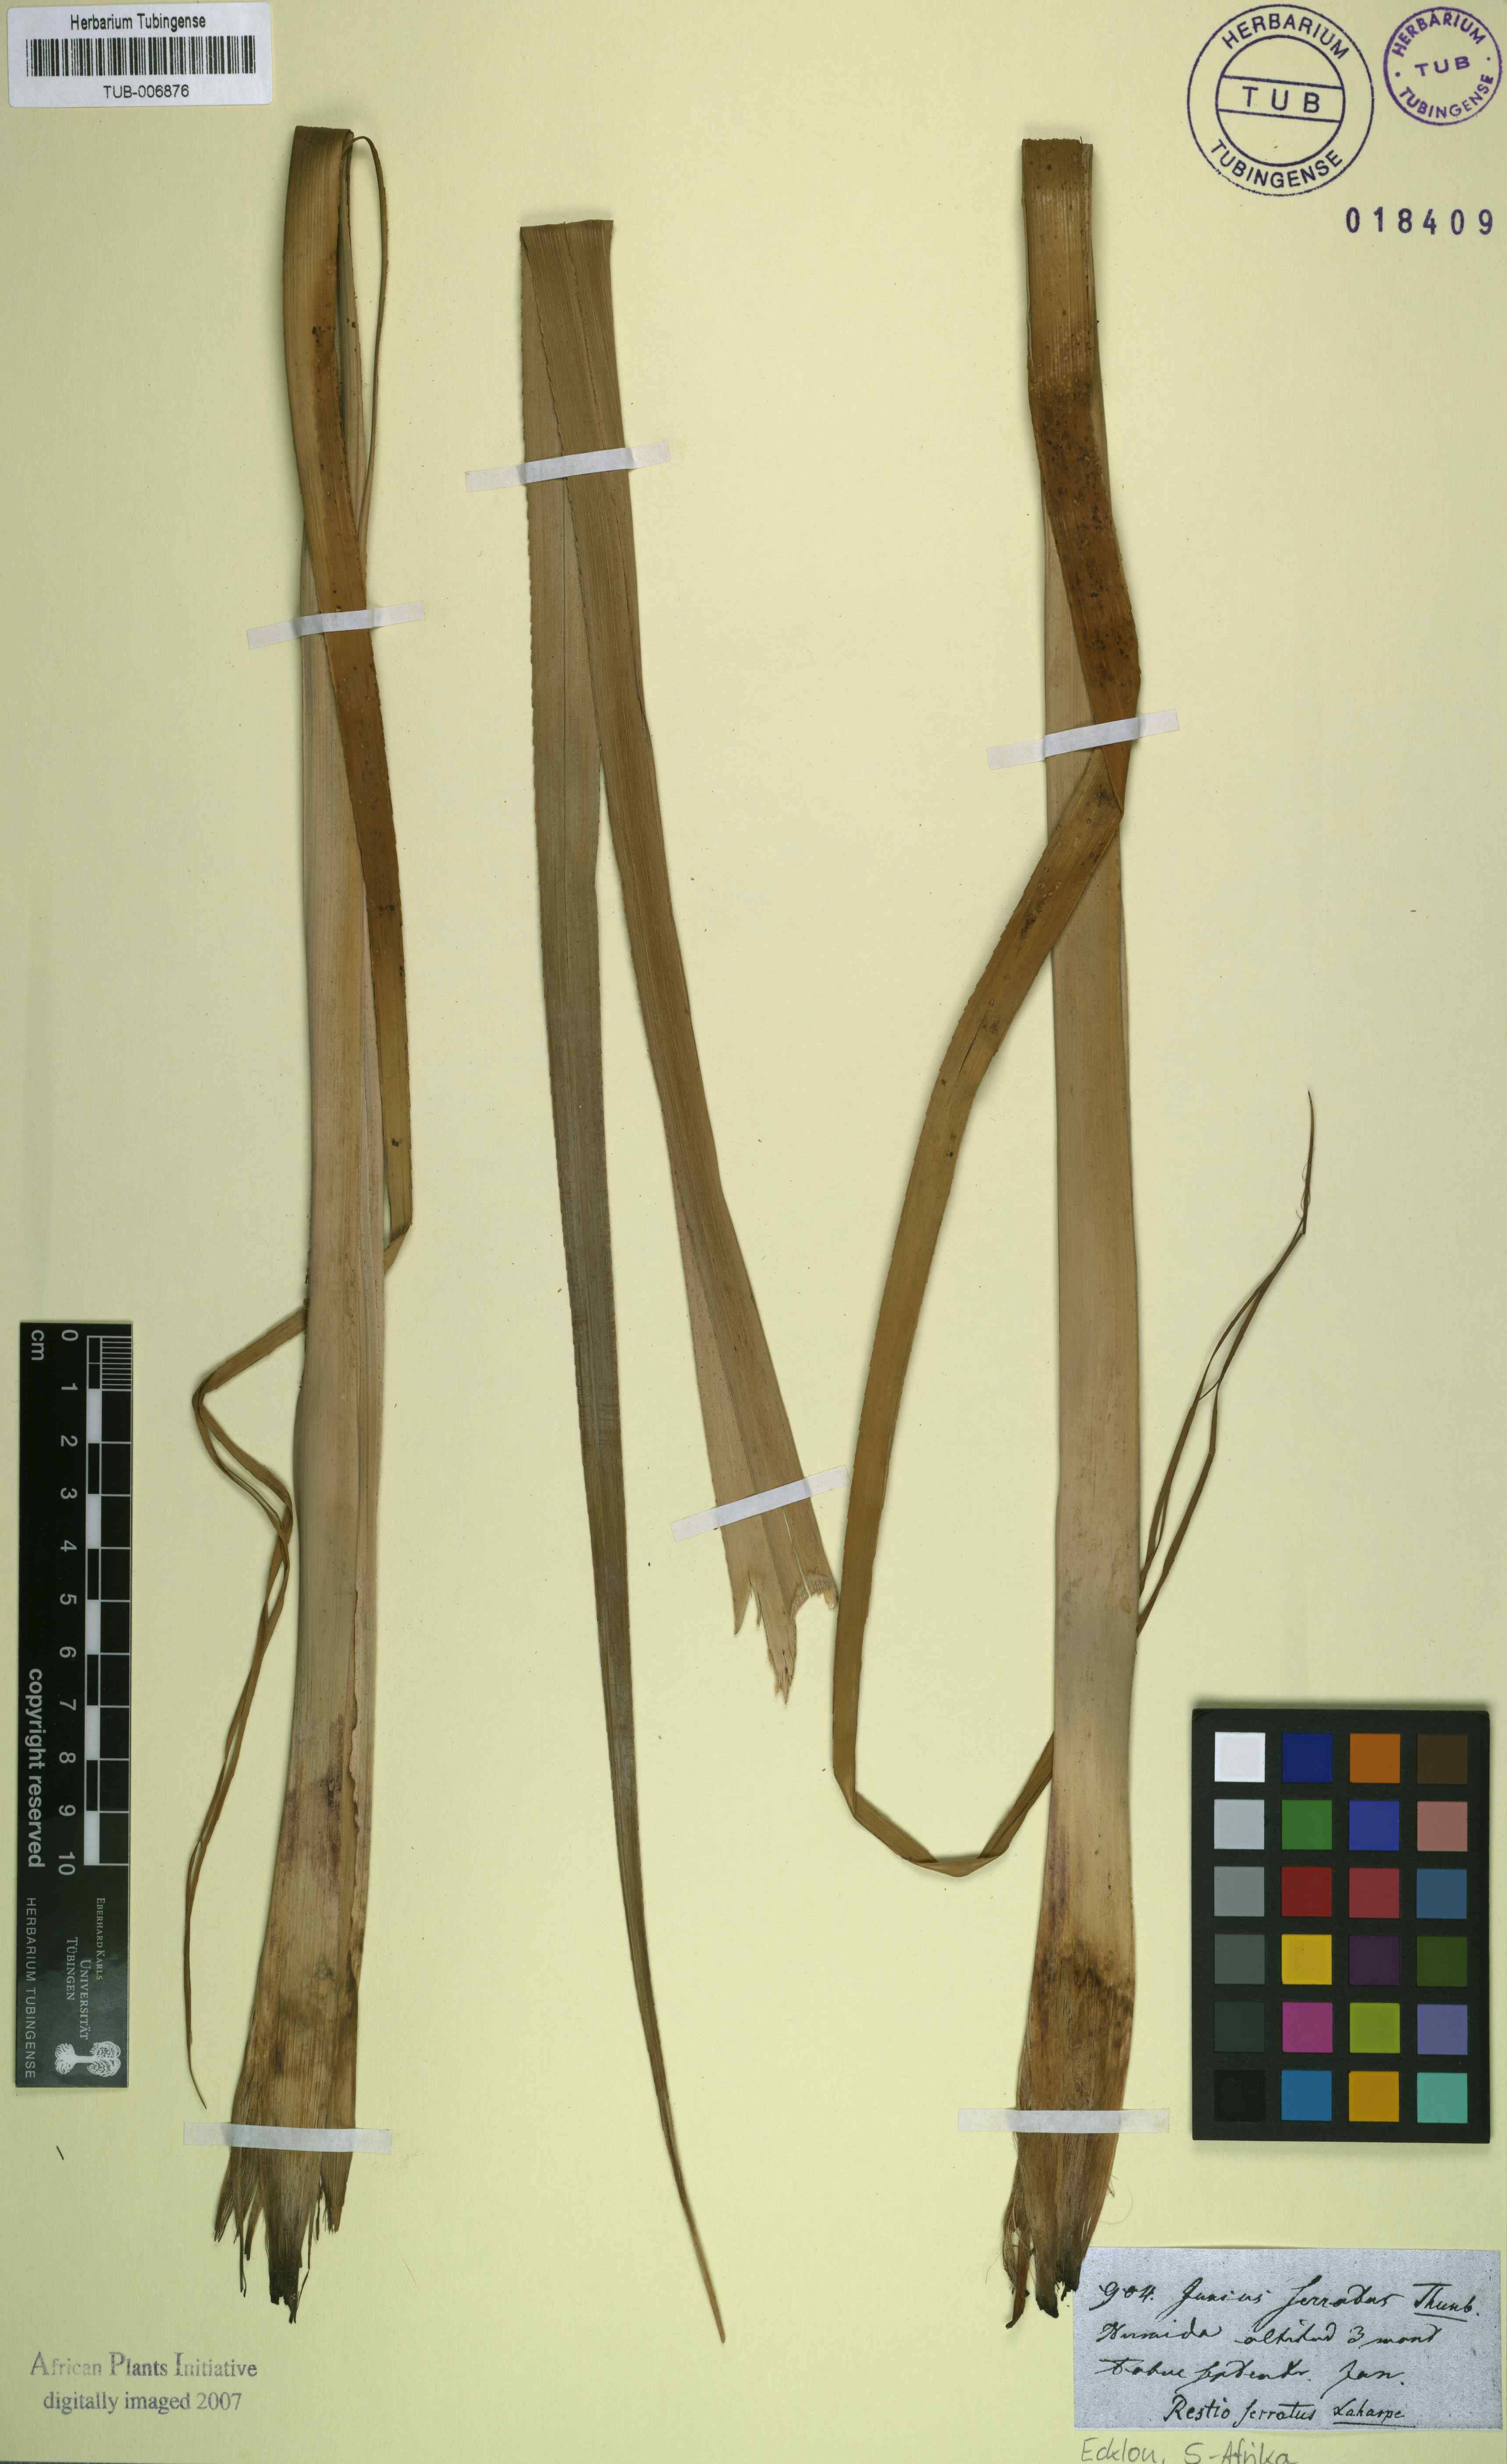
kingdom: Plantae
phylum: Tracheophyta
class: Liliopsida
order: Poales
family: Thurniaceae
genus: Prionium
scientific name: Prionium serratum
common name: Palmiet
